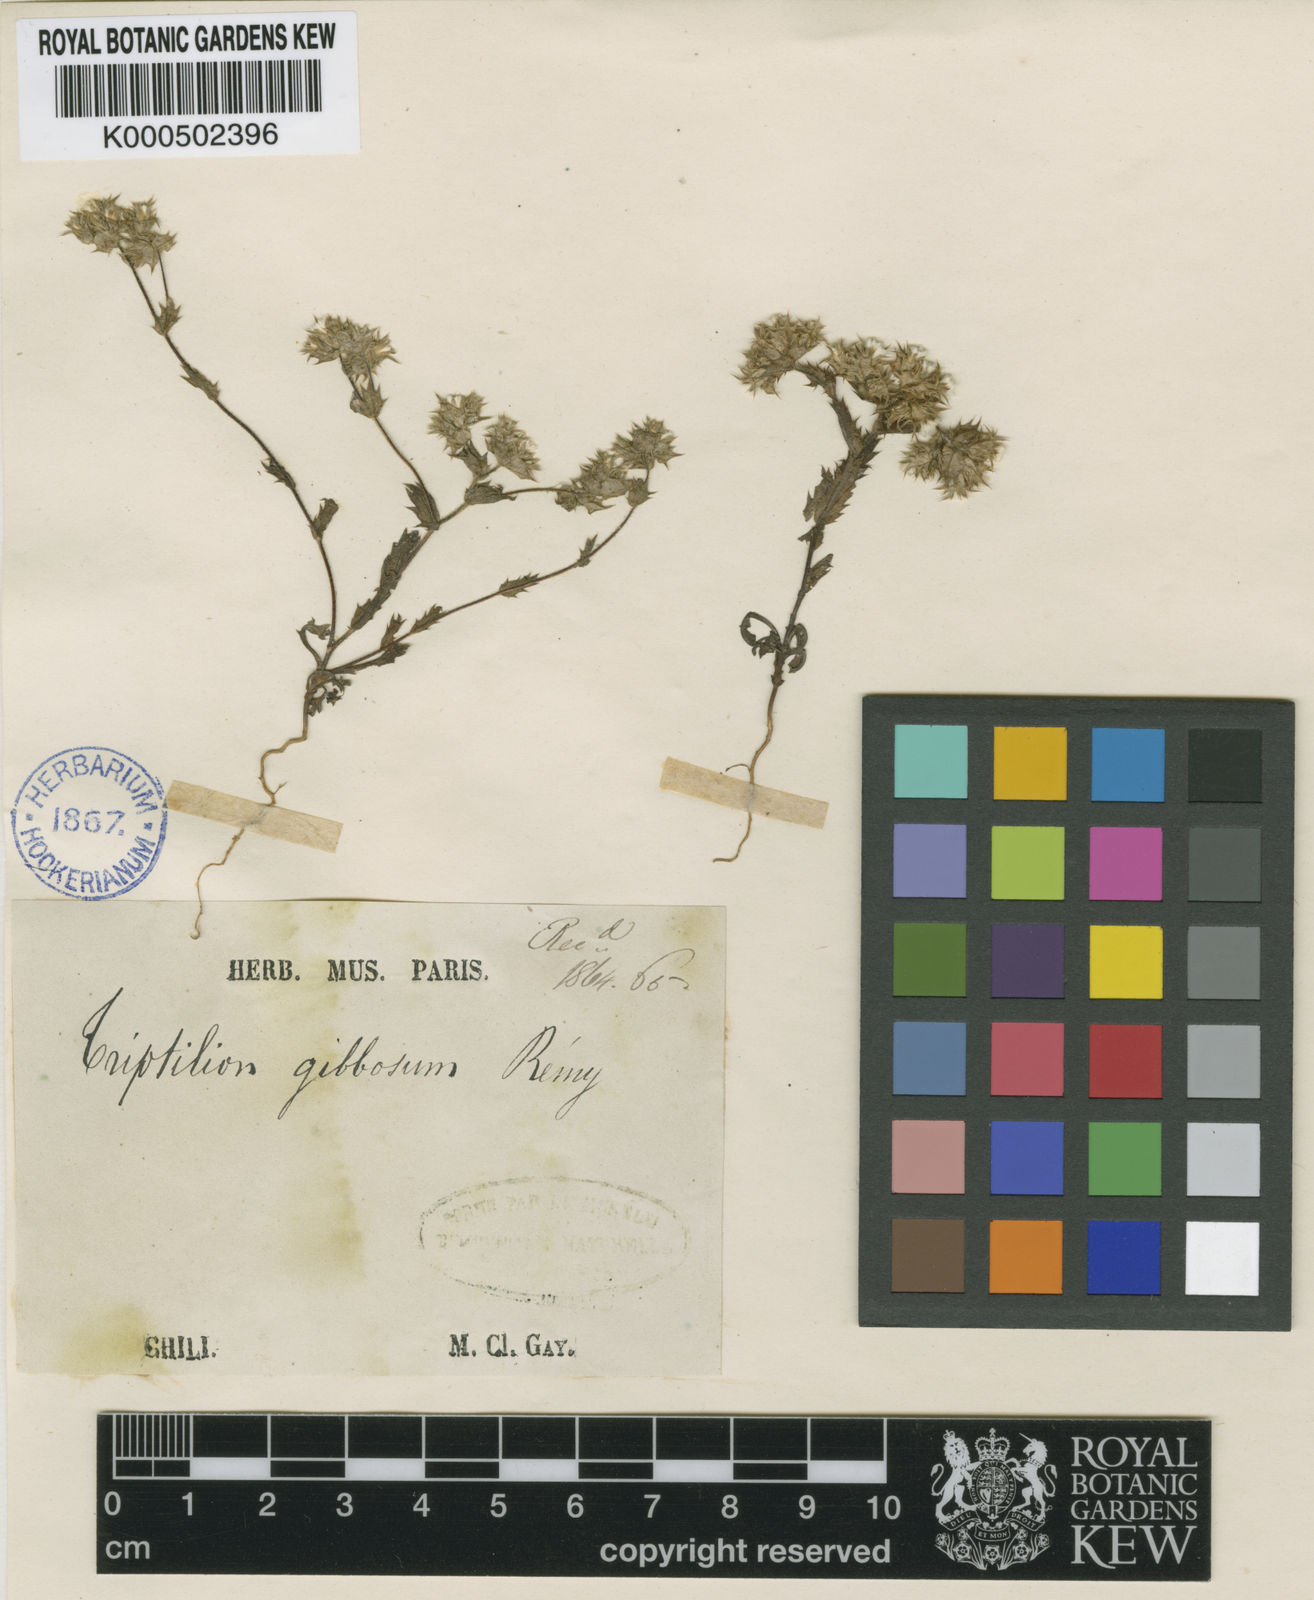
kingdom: Plantae
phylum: Tracheophyta
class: Magnoliopsida
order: Asterales
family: Asteraceae
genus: Triptilion
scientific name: Triptilion gibbosum
